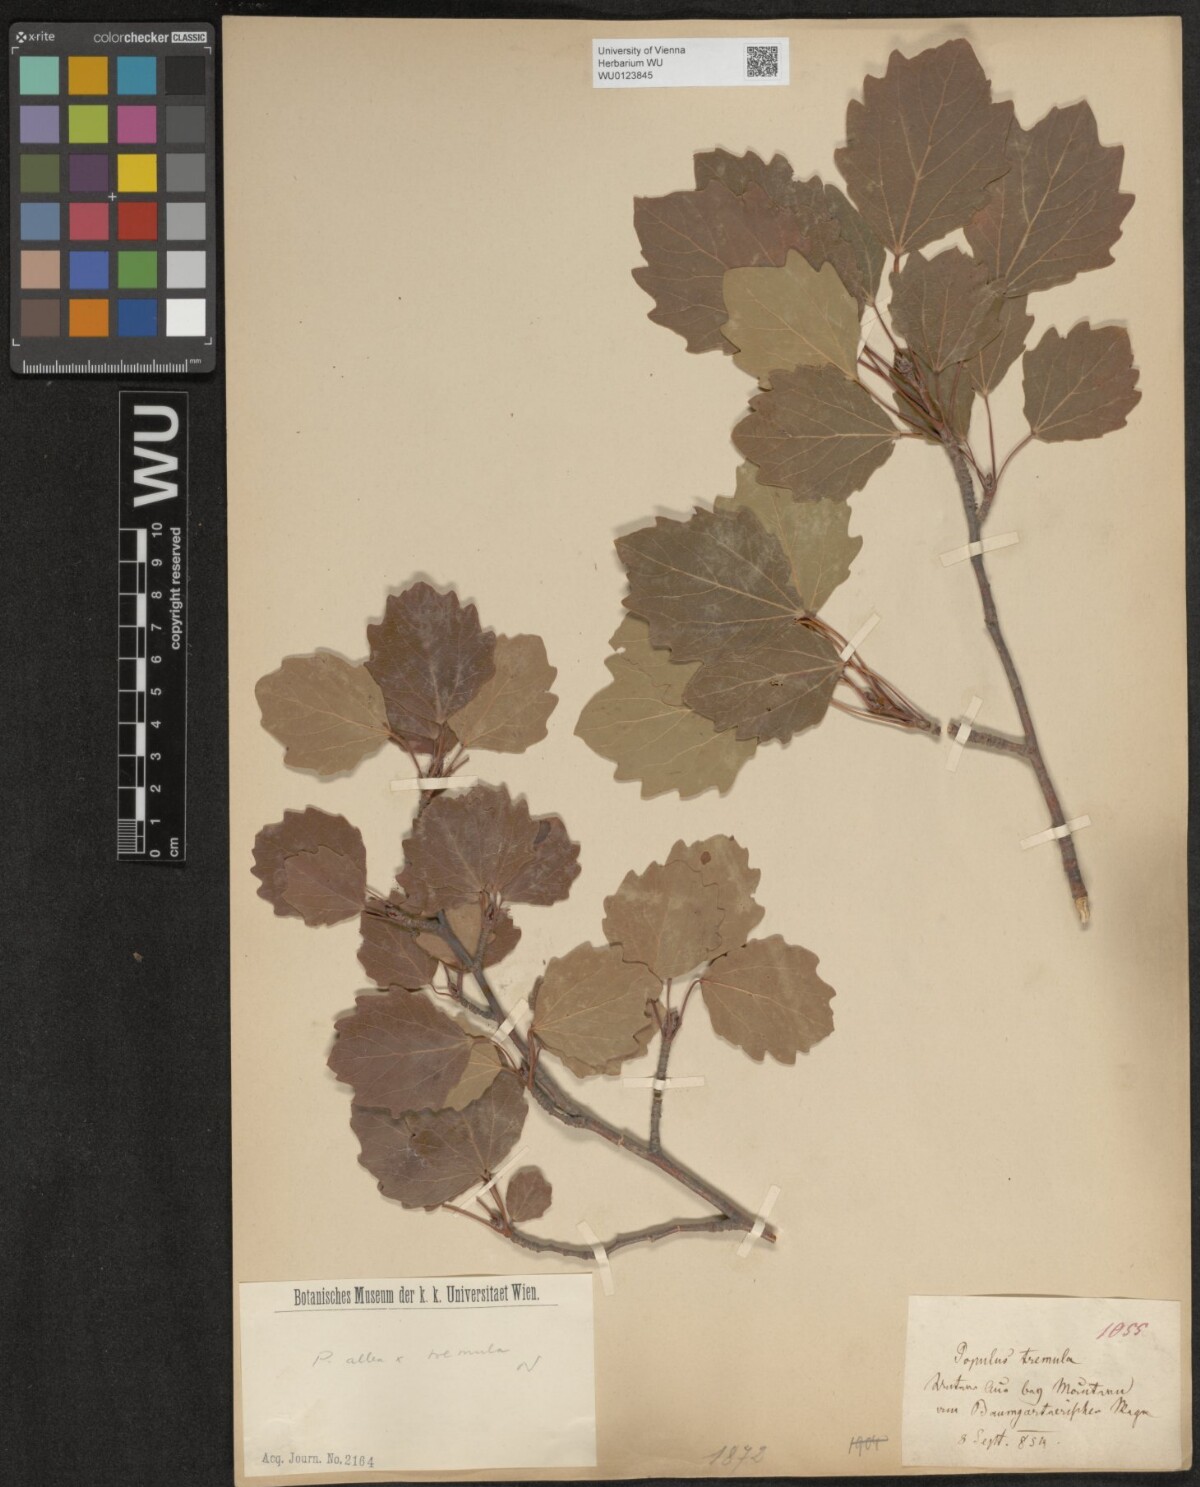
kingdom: Plantae
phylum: Tracheophyta
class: Magnoliopsida
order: Malpighiales
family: Salicaceae
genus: Populus
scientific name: Populus canescens
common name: Gray poplar
